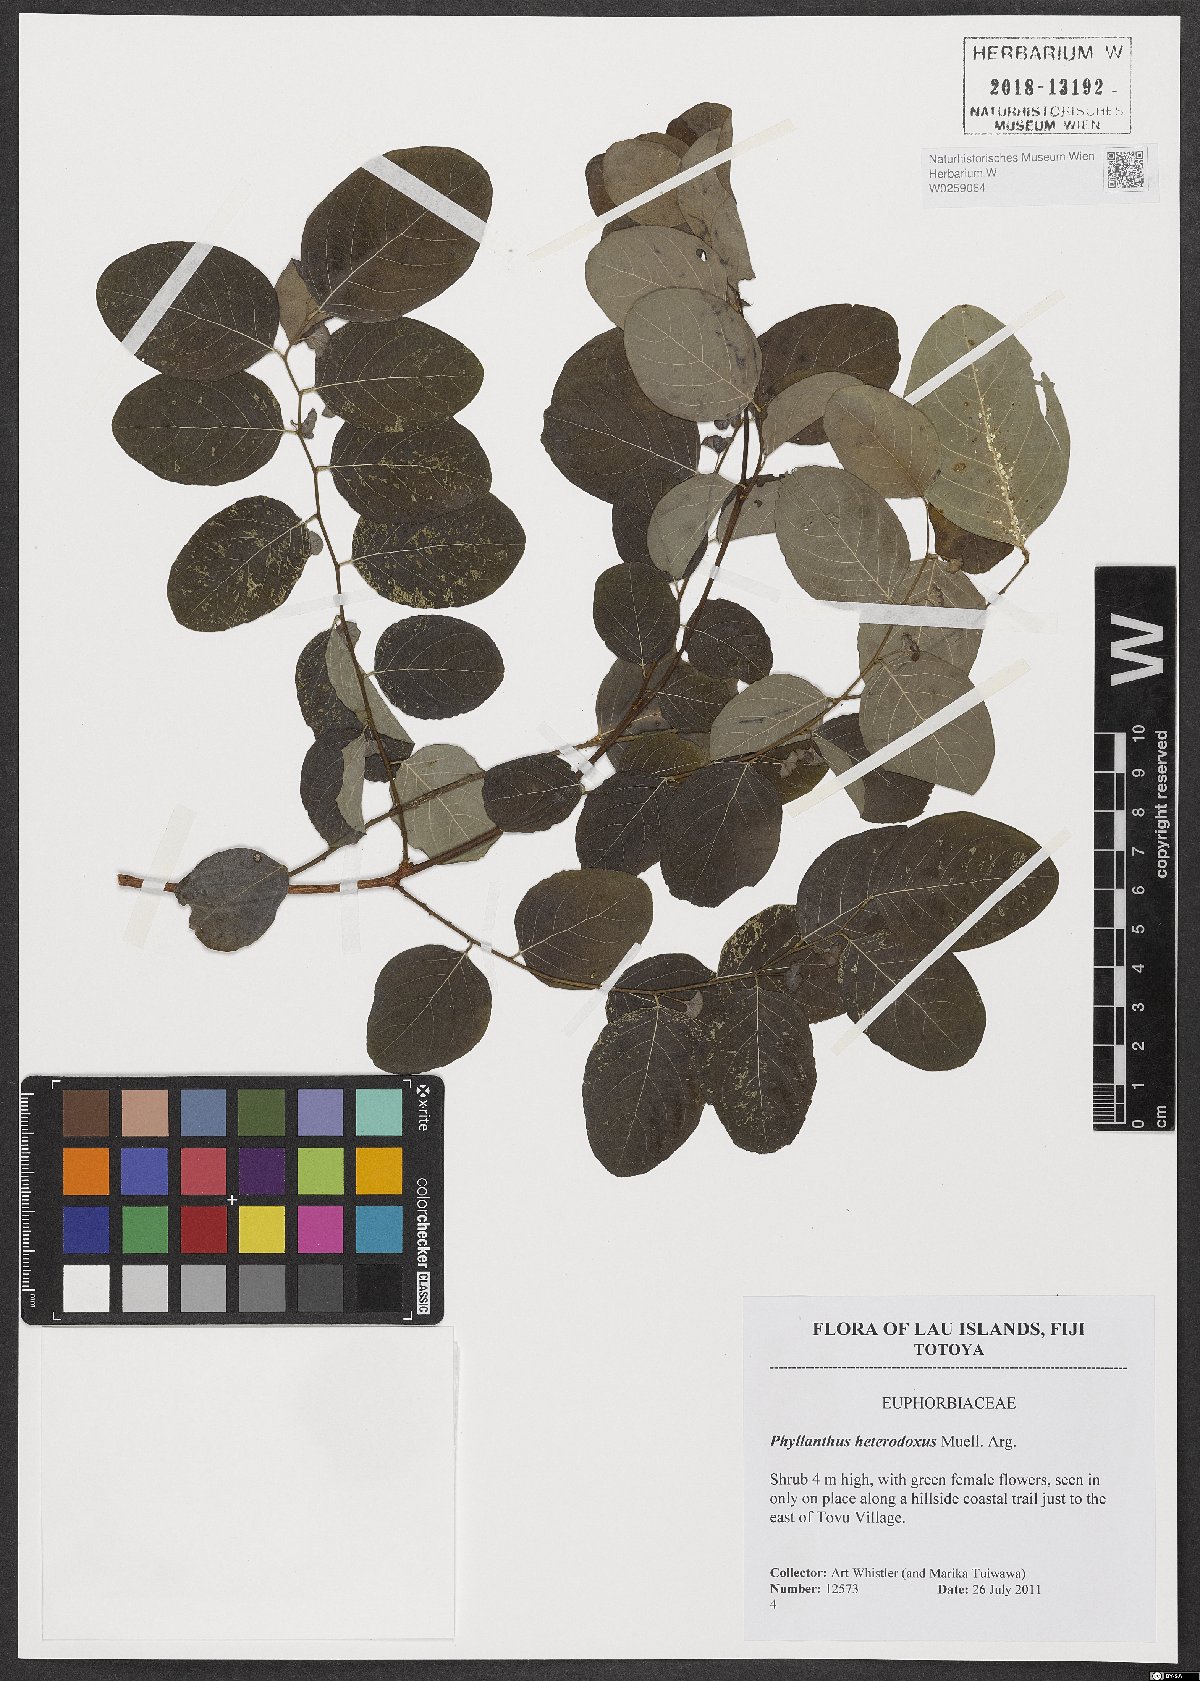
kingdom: Plantae
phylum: Tracheophyta
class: Magnoliopsida
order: Malpighiales
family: Phyllanthaceae
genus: Glochidion
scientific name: Glochidion heterodoxum
